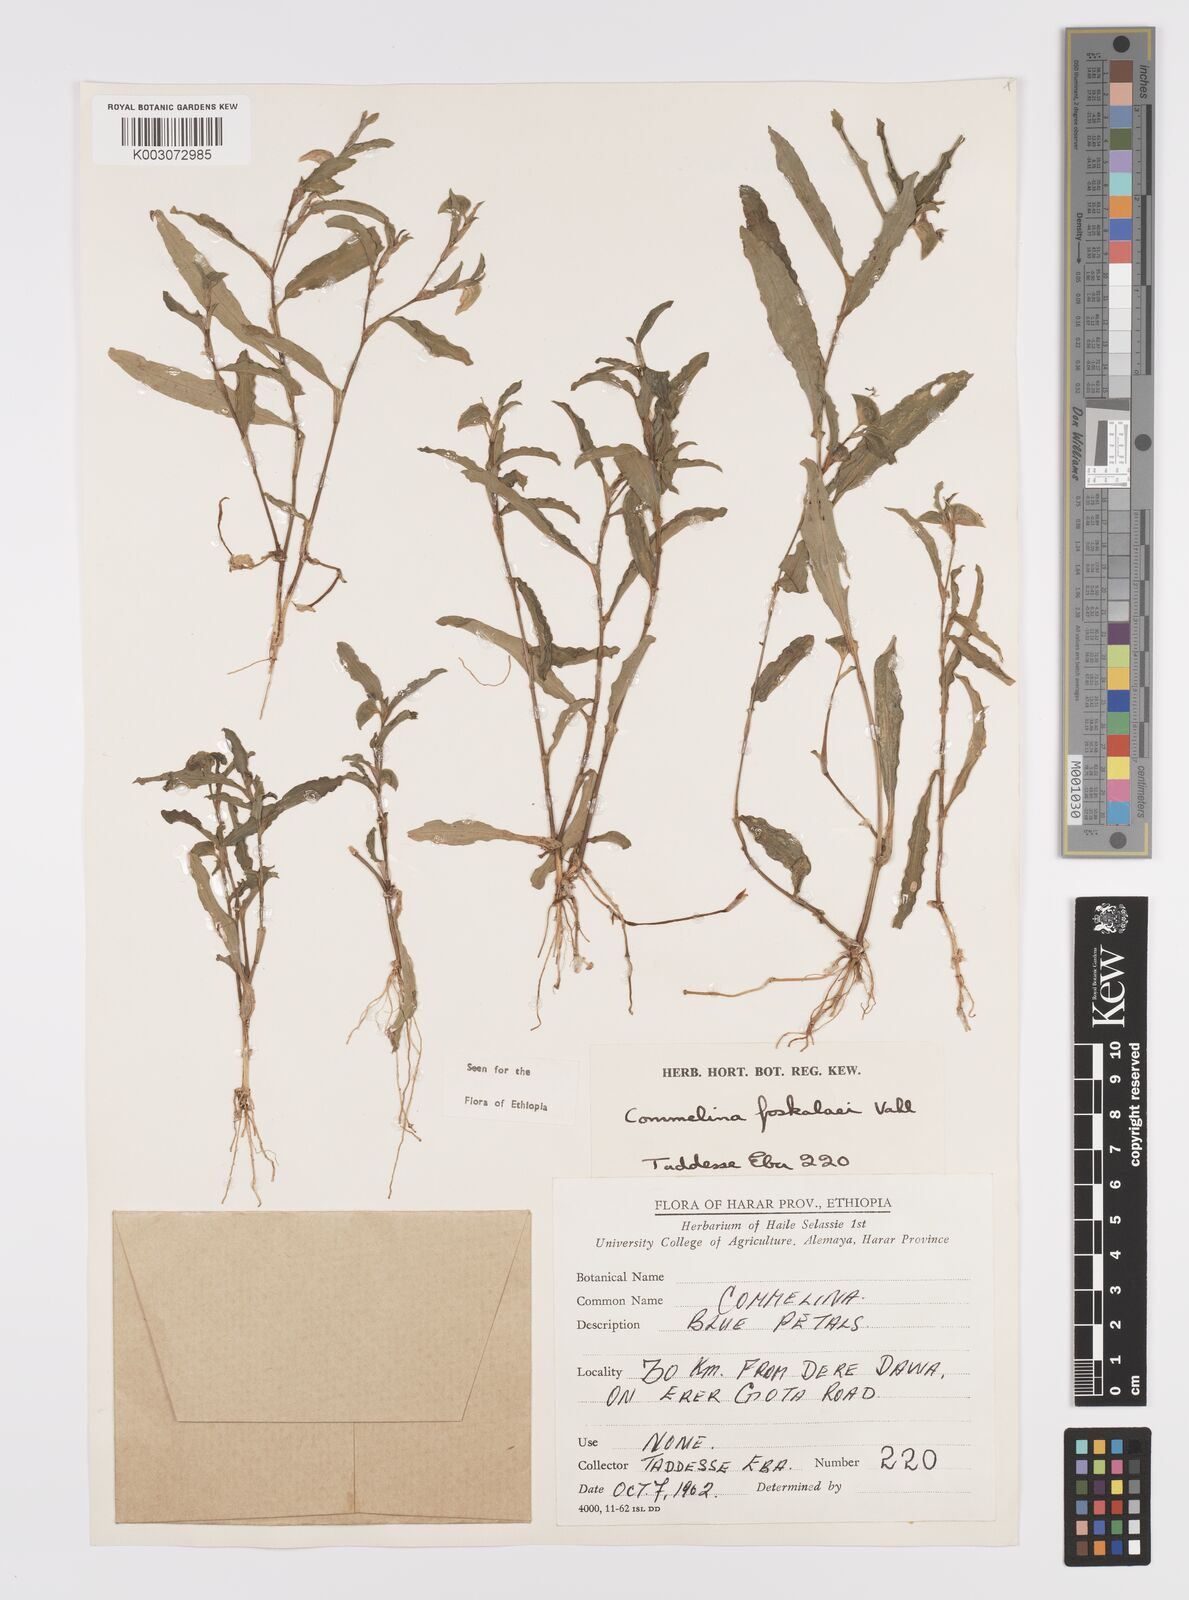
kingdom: Plantae
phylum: Tracheophyta
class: Liliopsida
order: Commelinales
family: Commelinaceae
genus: Commelina
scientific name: Commelina forskaolii
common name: Rat's ear
